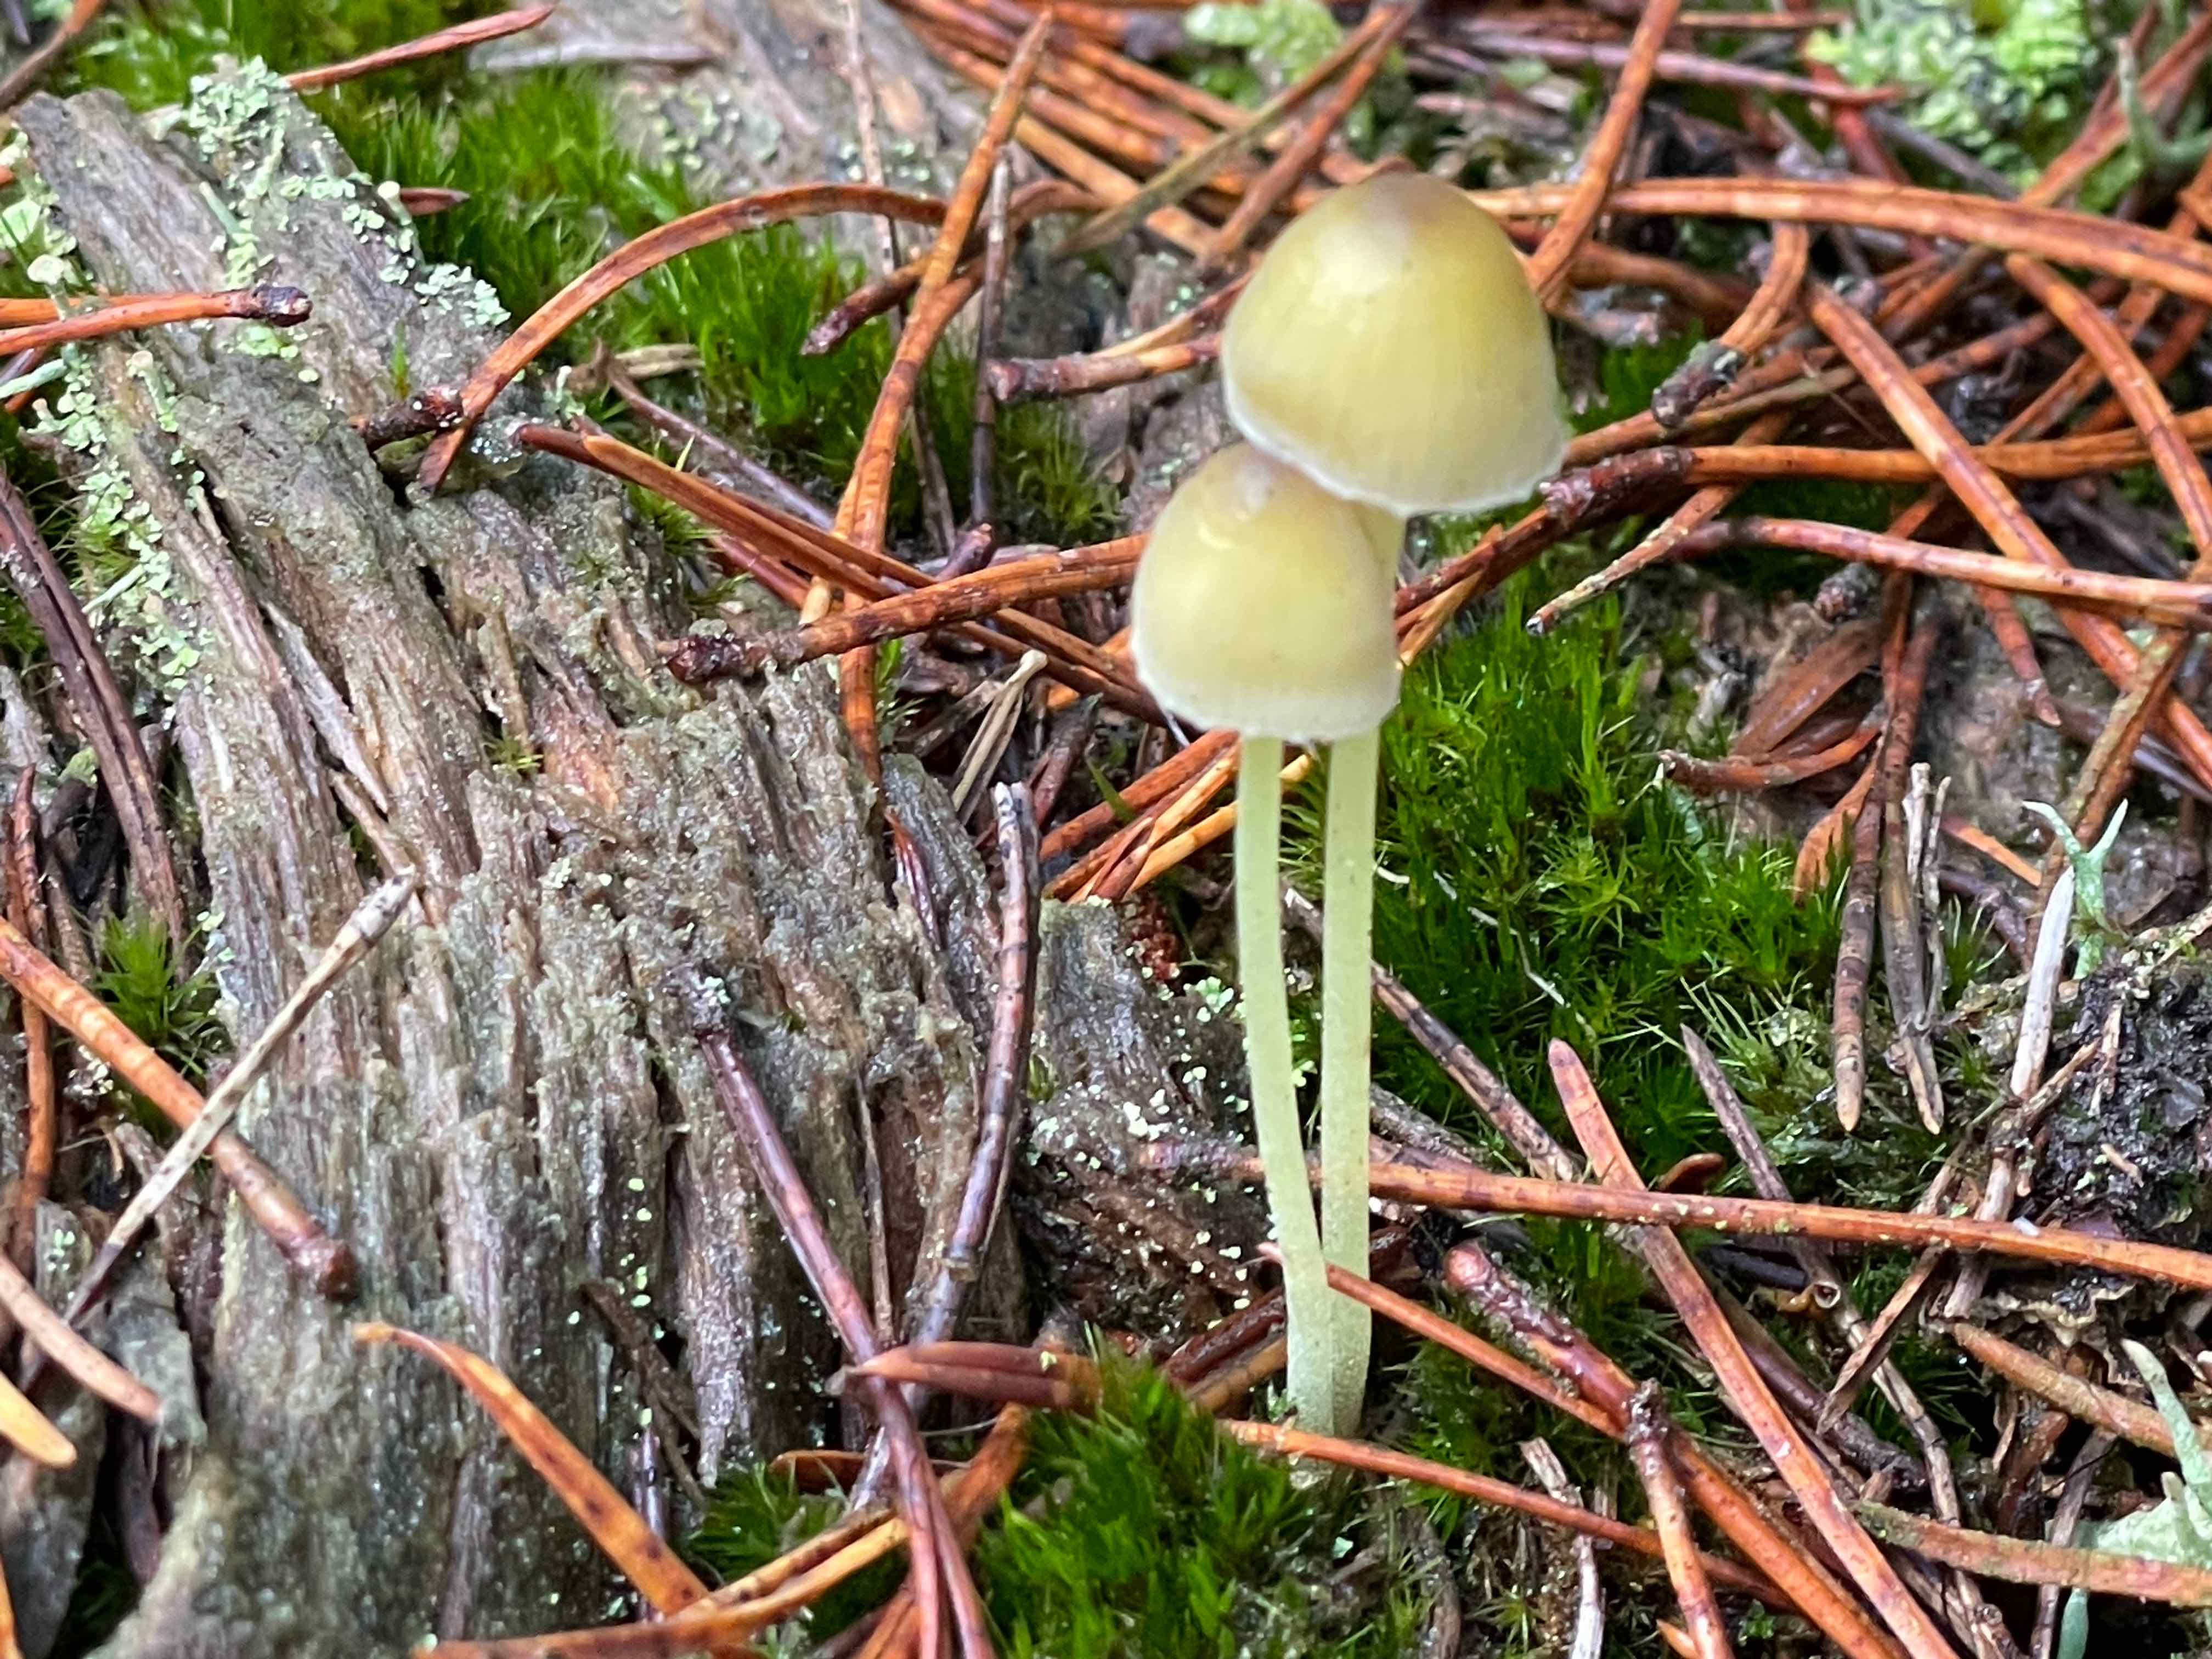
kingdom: Fungi
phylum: Basidiomycota
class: Agaricomycetes
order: Agaricales
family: Mycenaceae
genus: Mycena
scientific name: Mycena epipterygia
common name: gulstokket huesvamp
